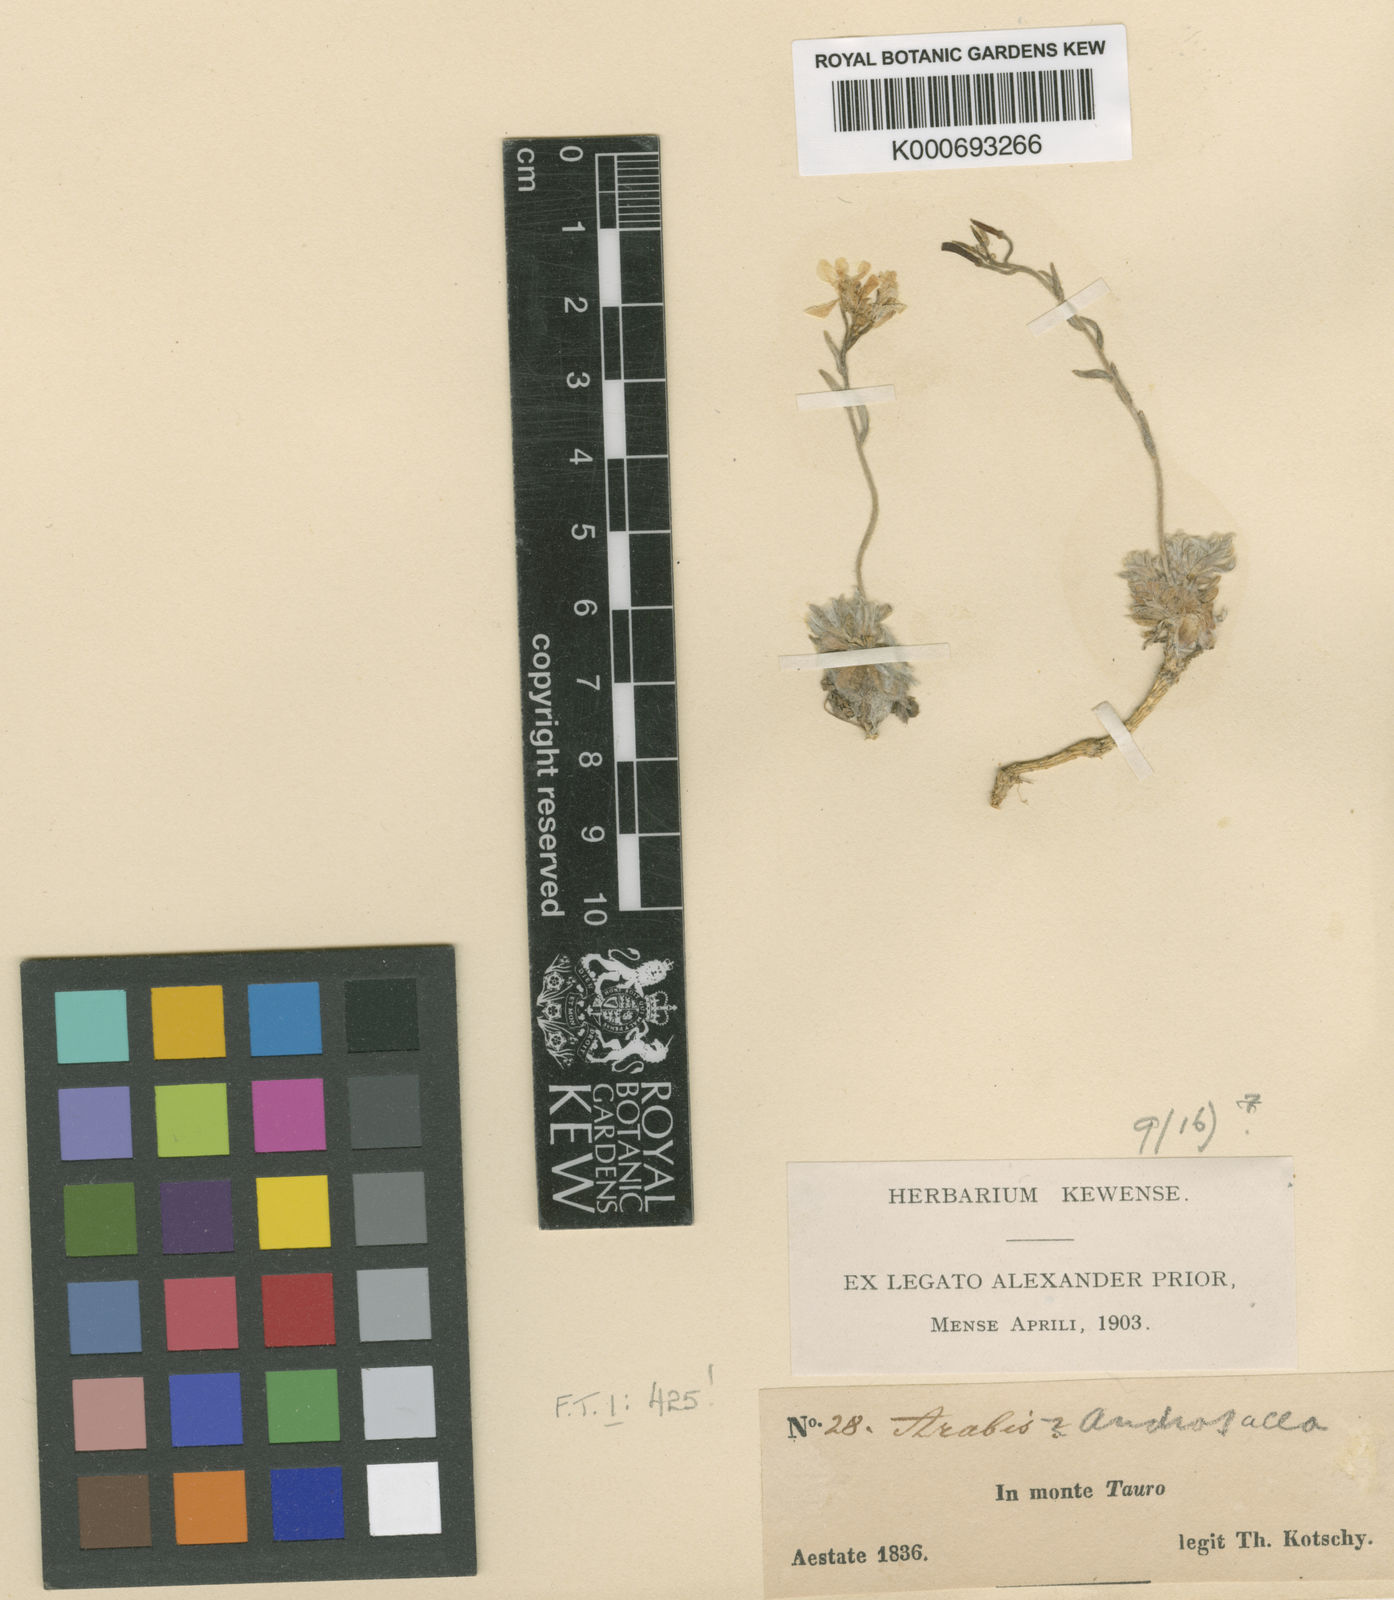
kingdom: Plantae
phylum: Tracheophyta
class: Magnoliopsida
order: Brassicales
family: Brassicaceae
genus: Arabis
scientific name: Arabis androsacea
